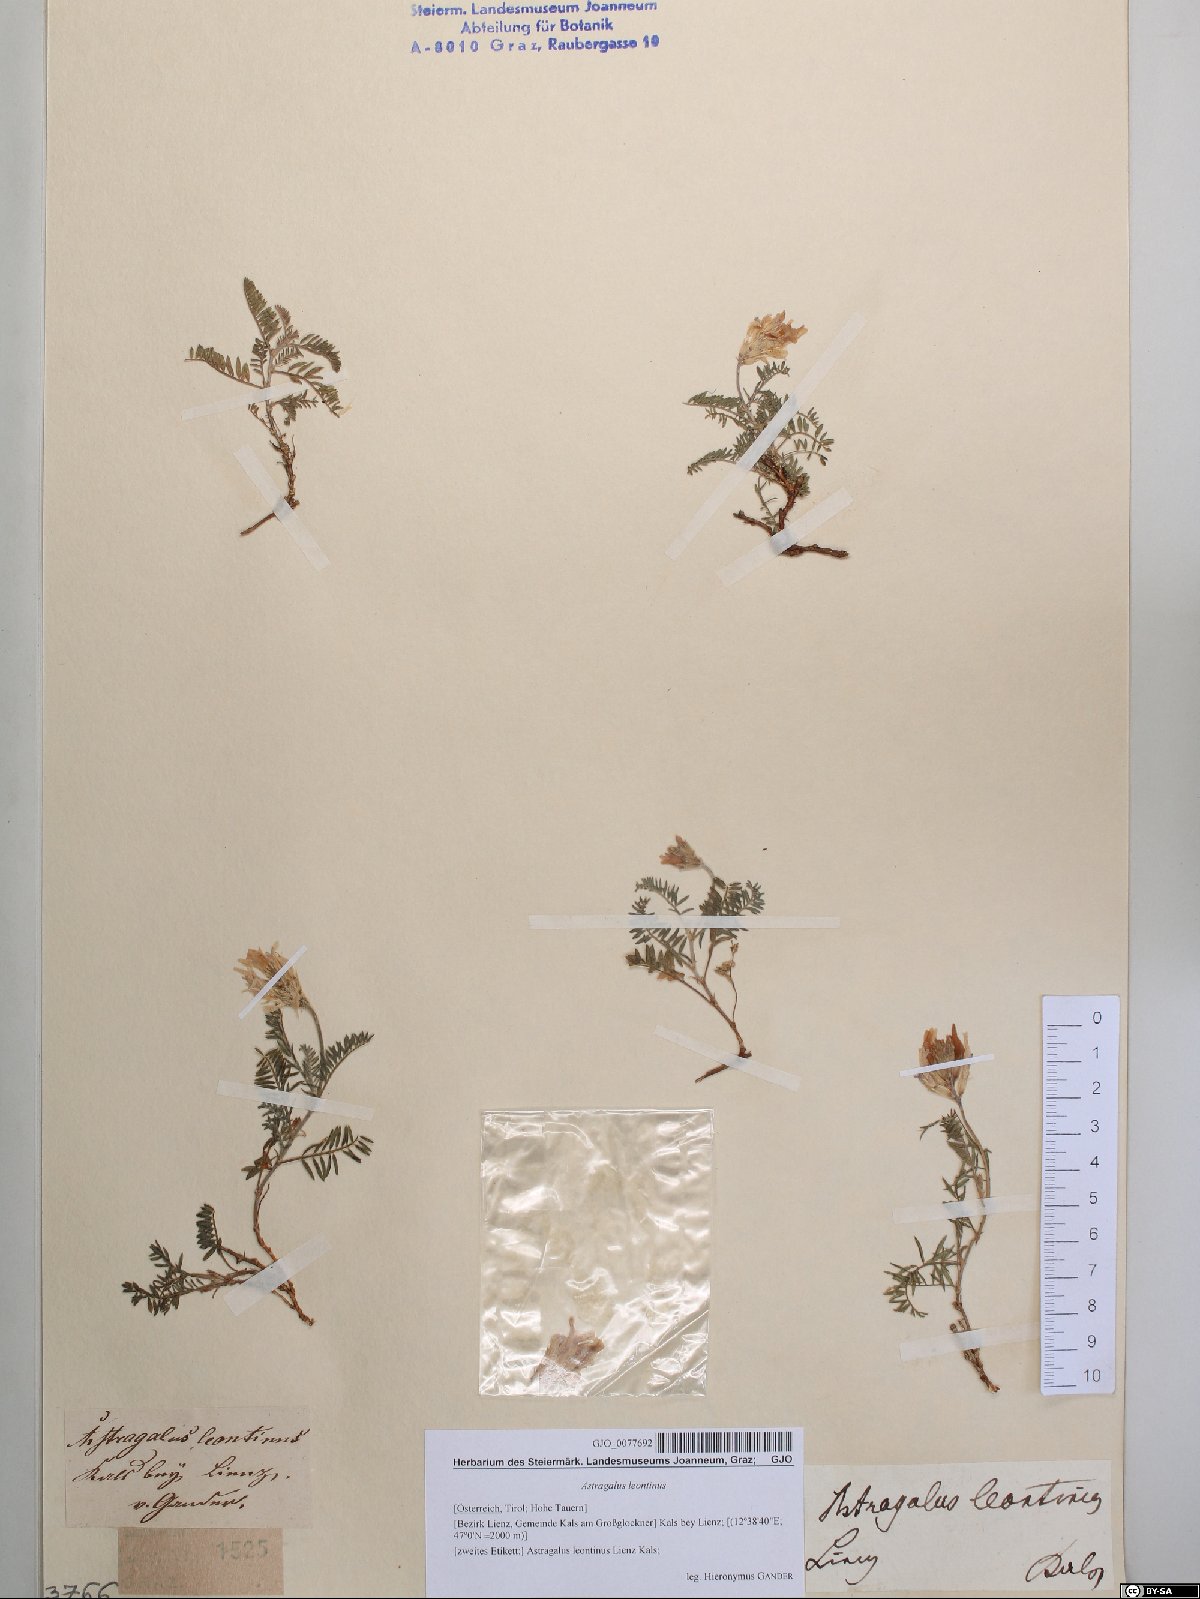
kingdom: Plantae
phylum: Tracheophyta
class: Magnoliopsida
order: Fabales
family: Fabaceae
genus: Astragalus
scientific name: Astragalus leontinus
